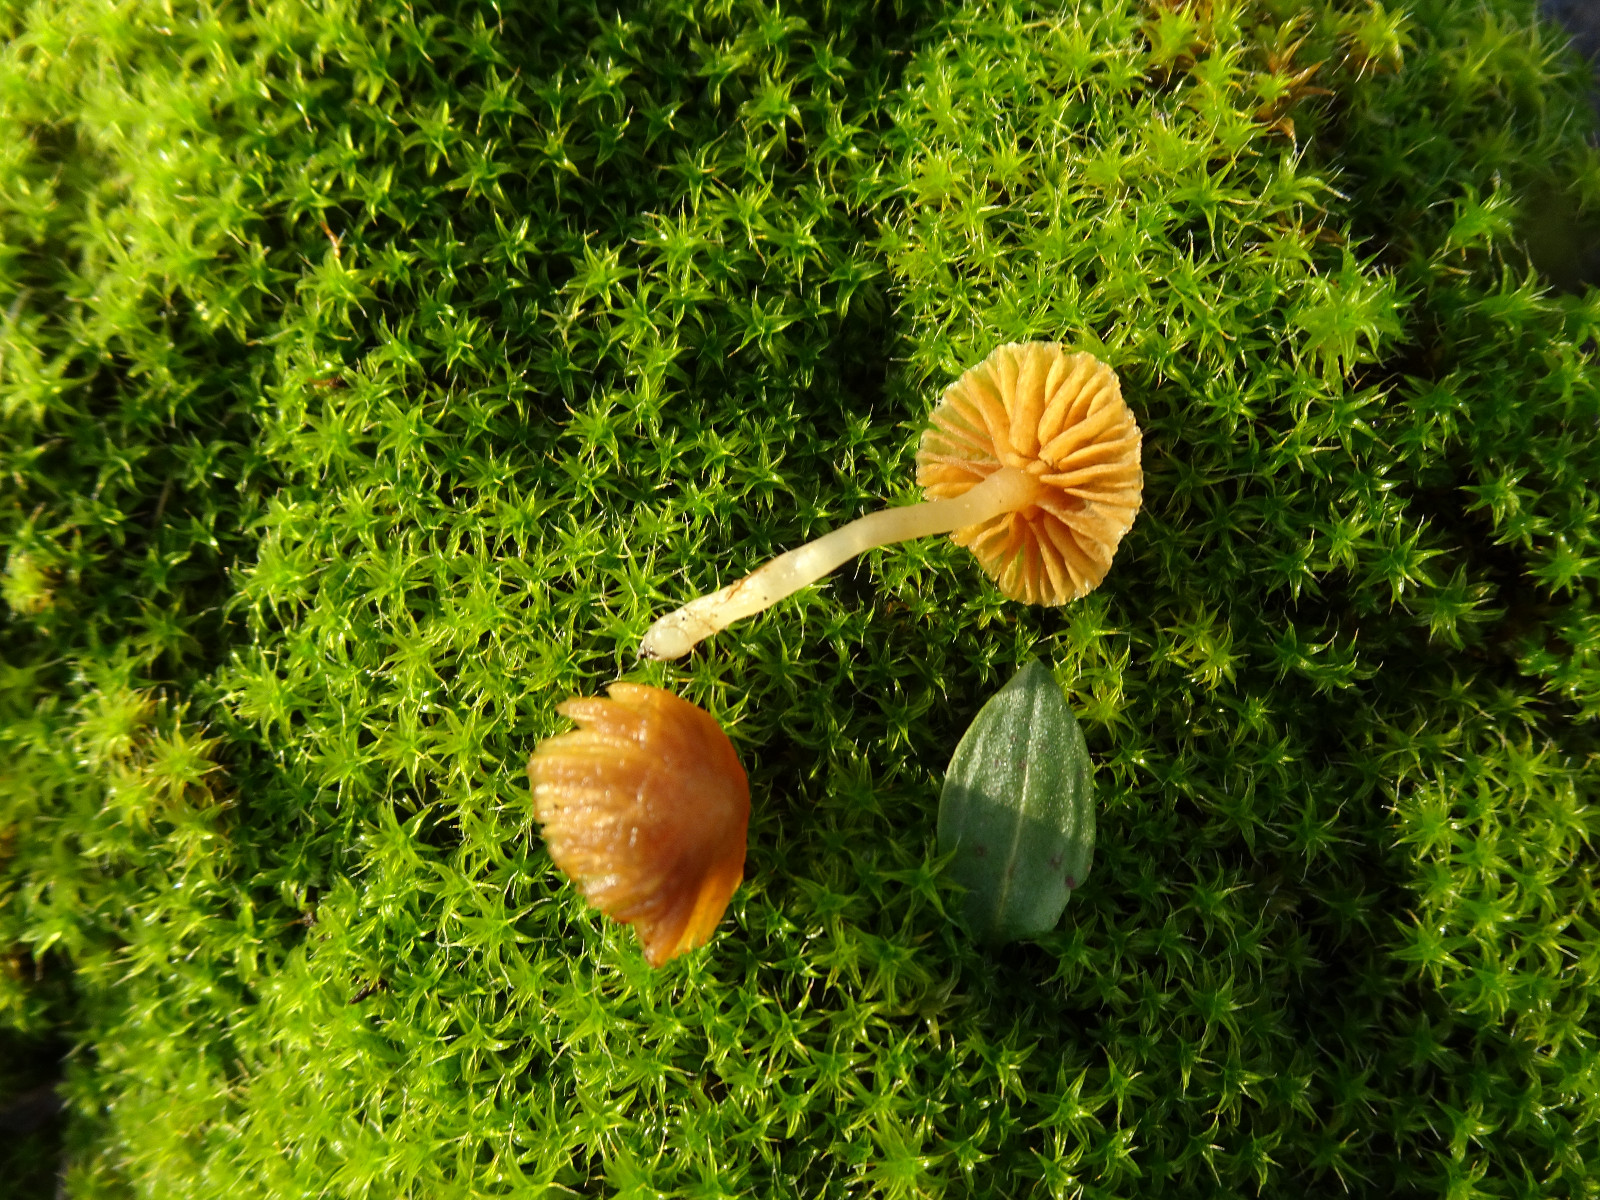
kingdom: Fungi
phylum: Basidiomycota
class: Agaricomycetes
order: Agaricales
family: Hymenogastraceae
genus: Galerina
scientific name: Galerina
